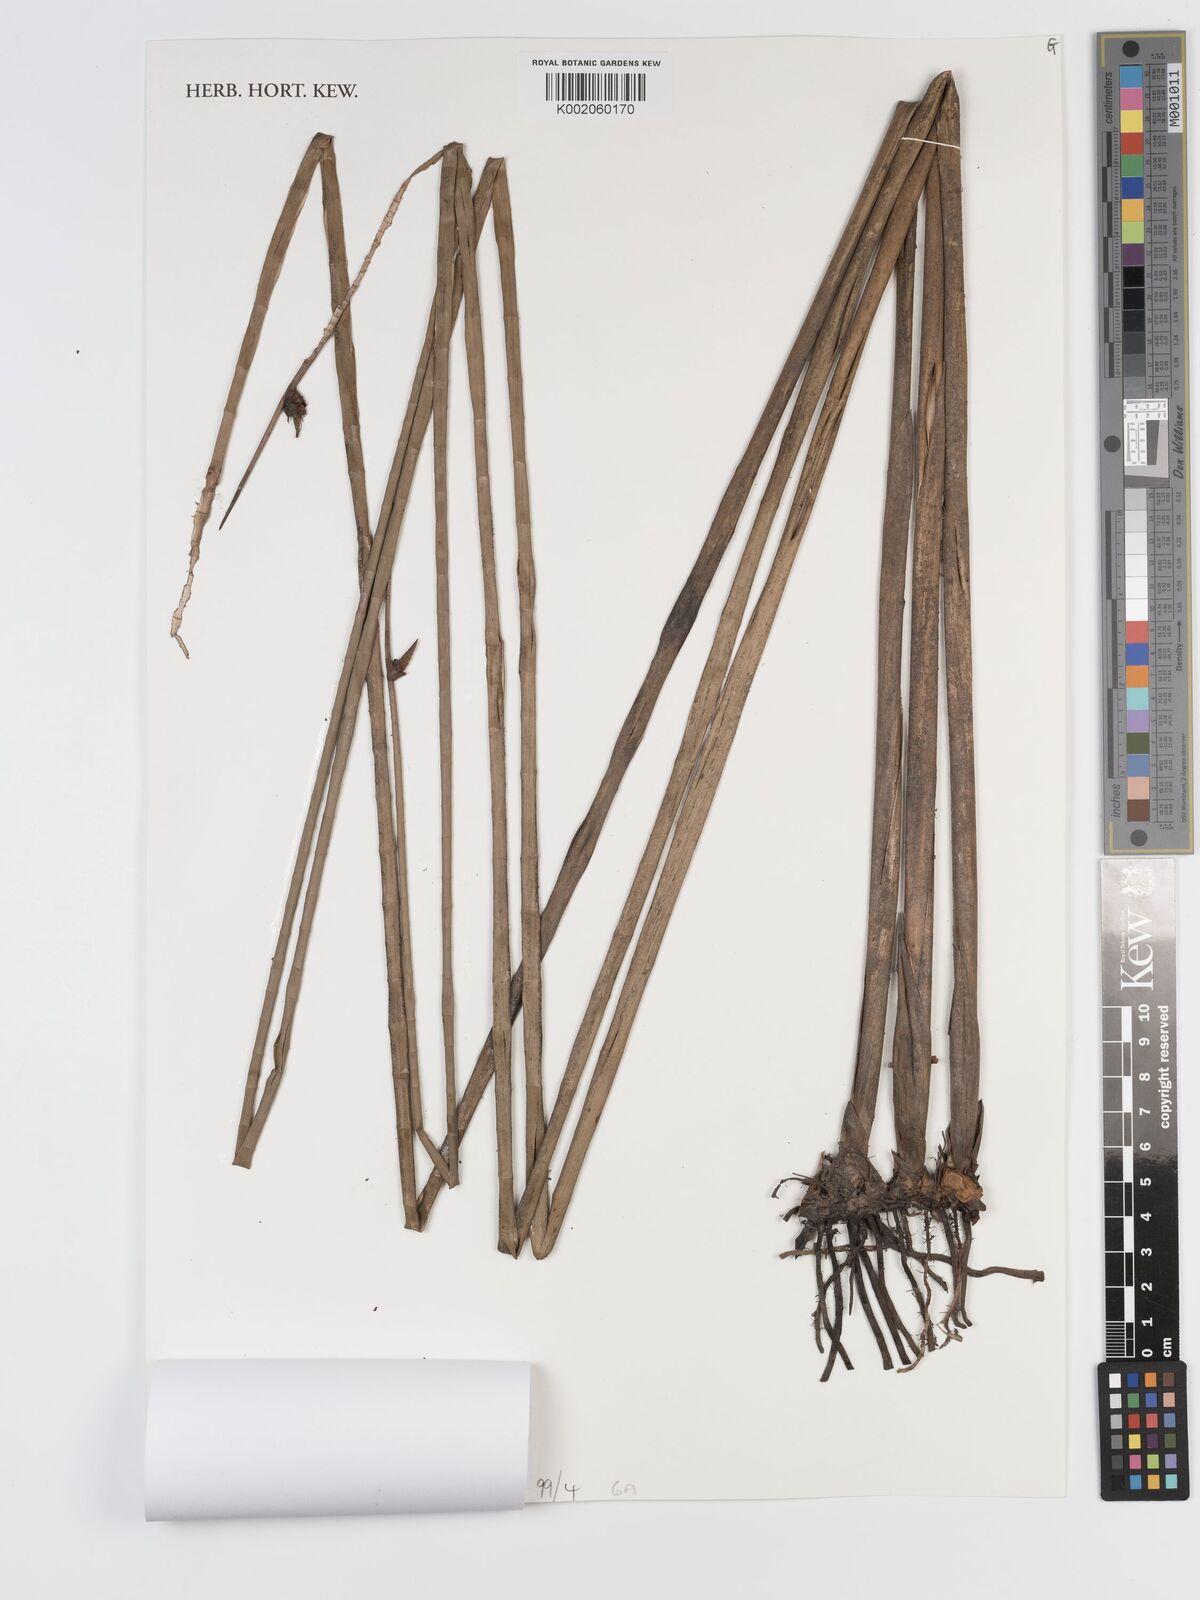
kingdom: Plantae
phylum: Tracheophyta
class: Liliopsida
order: Poales
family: Cyperaceae
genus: Lepironia
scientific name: Lepironia articulata
